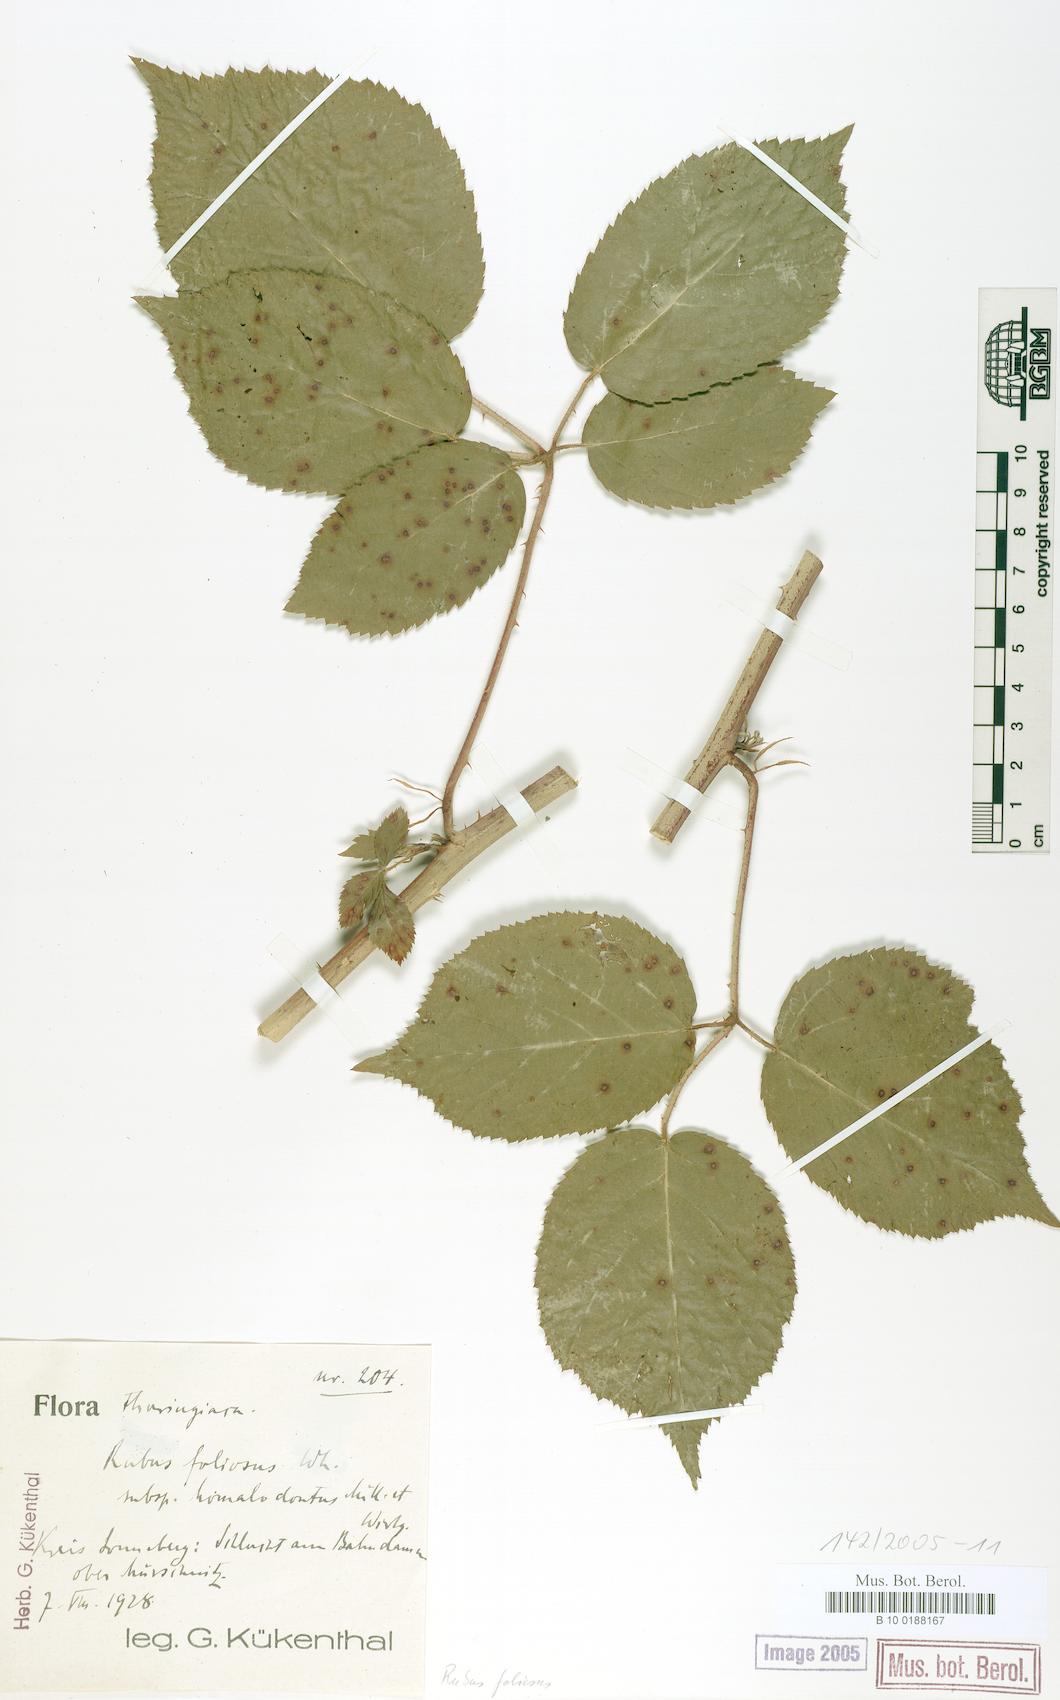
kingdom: Plantae
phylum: Tracheophyta
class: Magnoliopsida
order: Rosales
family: Rosaceae
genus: Rubus
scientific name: Rubus silvae-thuringiae
